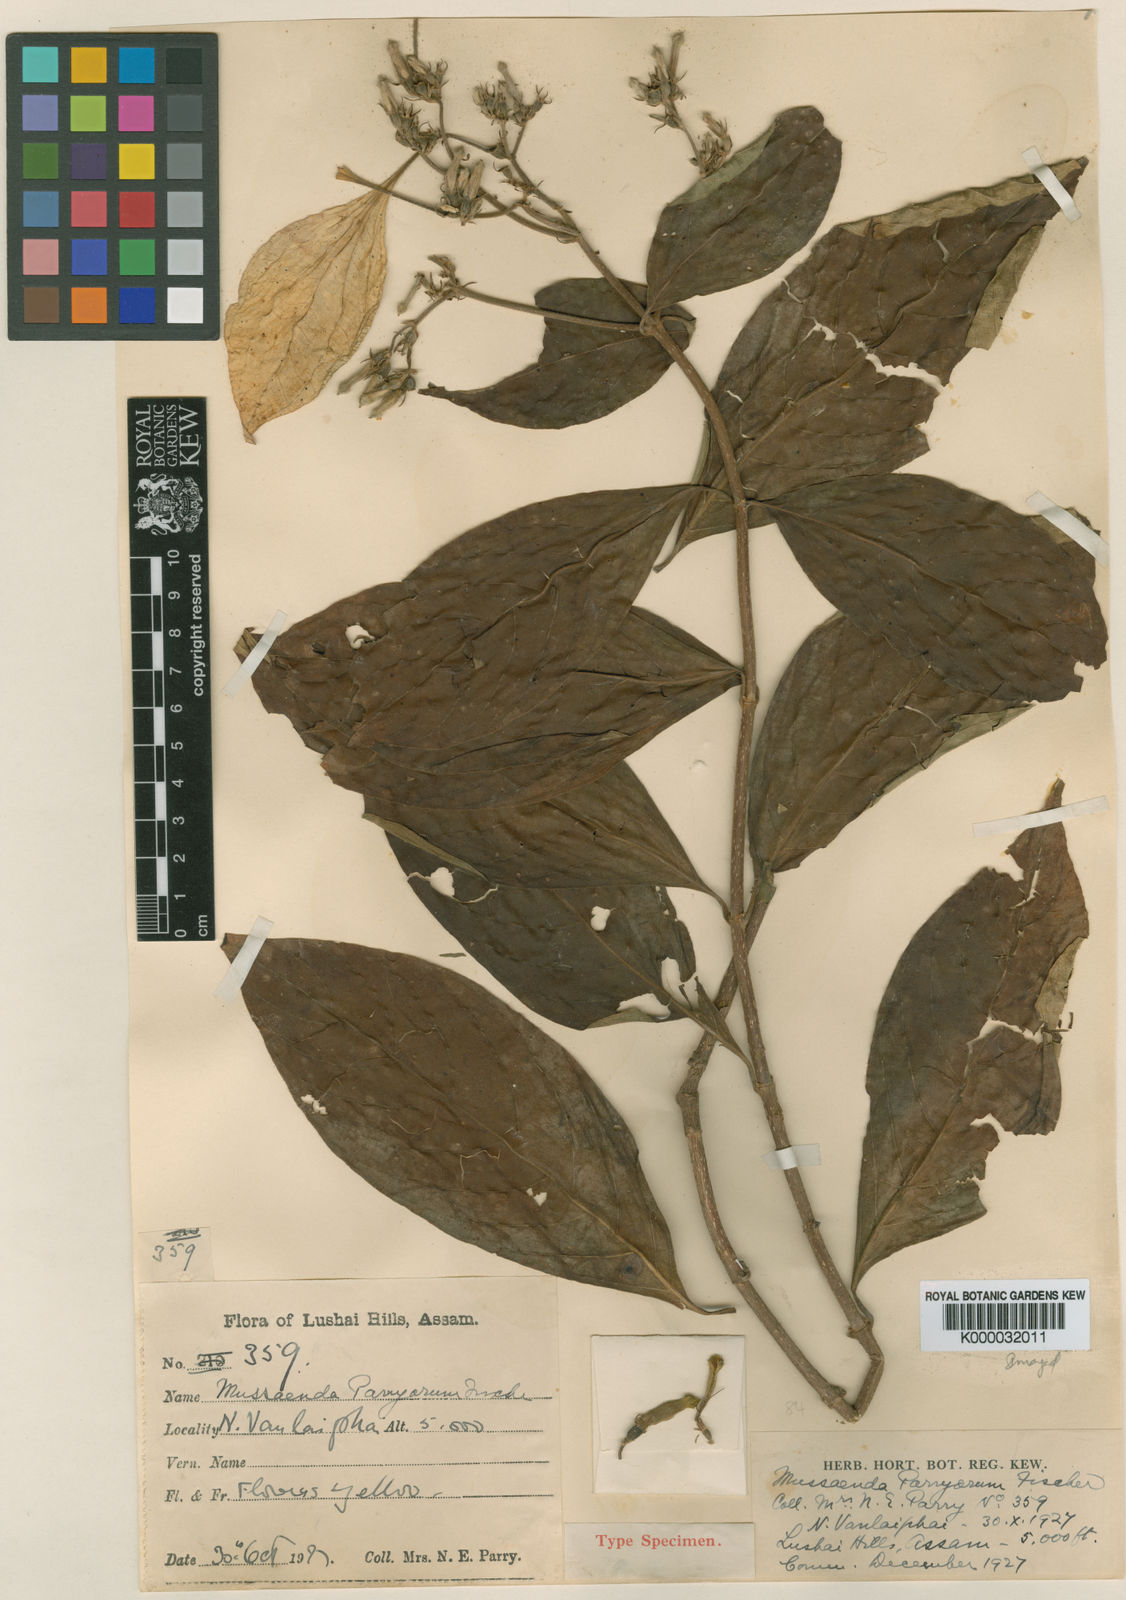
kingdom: Plantae
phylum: Tracheophyta
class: Magnoliopsida
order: Gentianales
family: Rubiaceae
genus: Mussaenda
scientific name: Mussaenda parryorum
